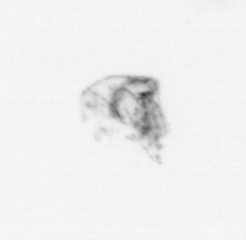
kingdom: Animalia
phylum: Arthropoda
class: Maxillopoda
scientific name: Maxillopoda
